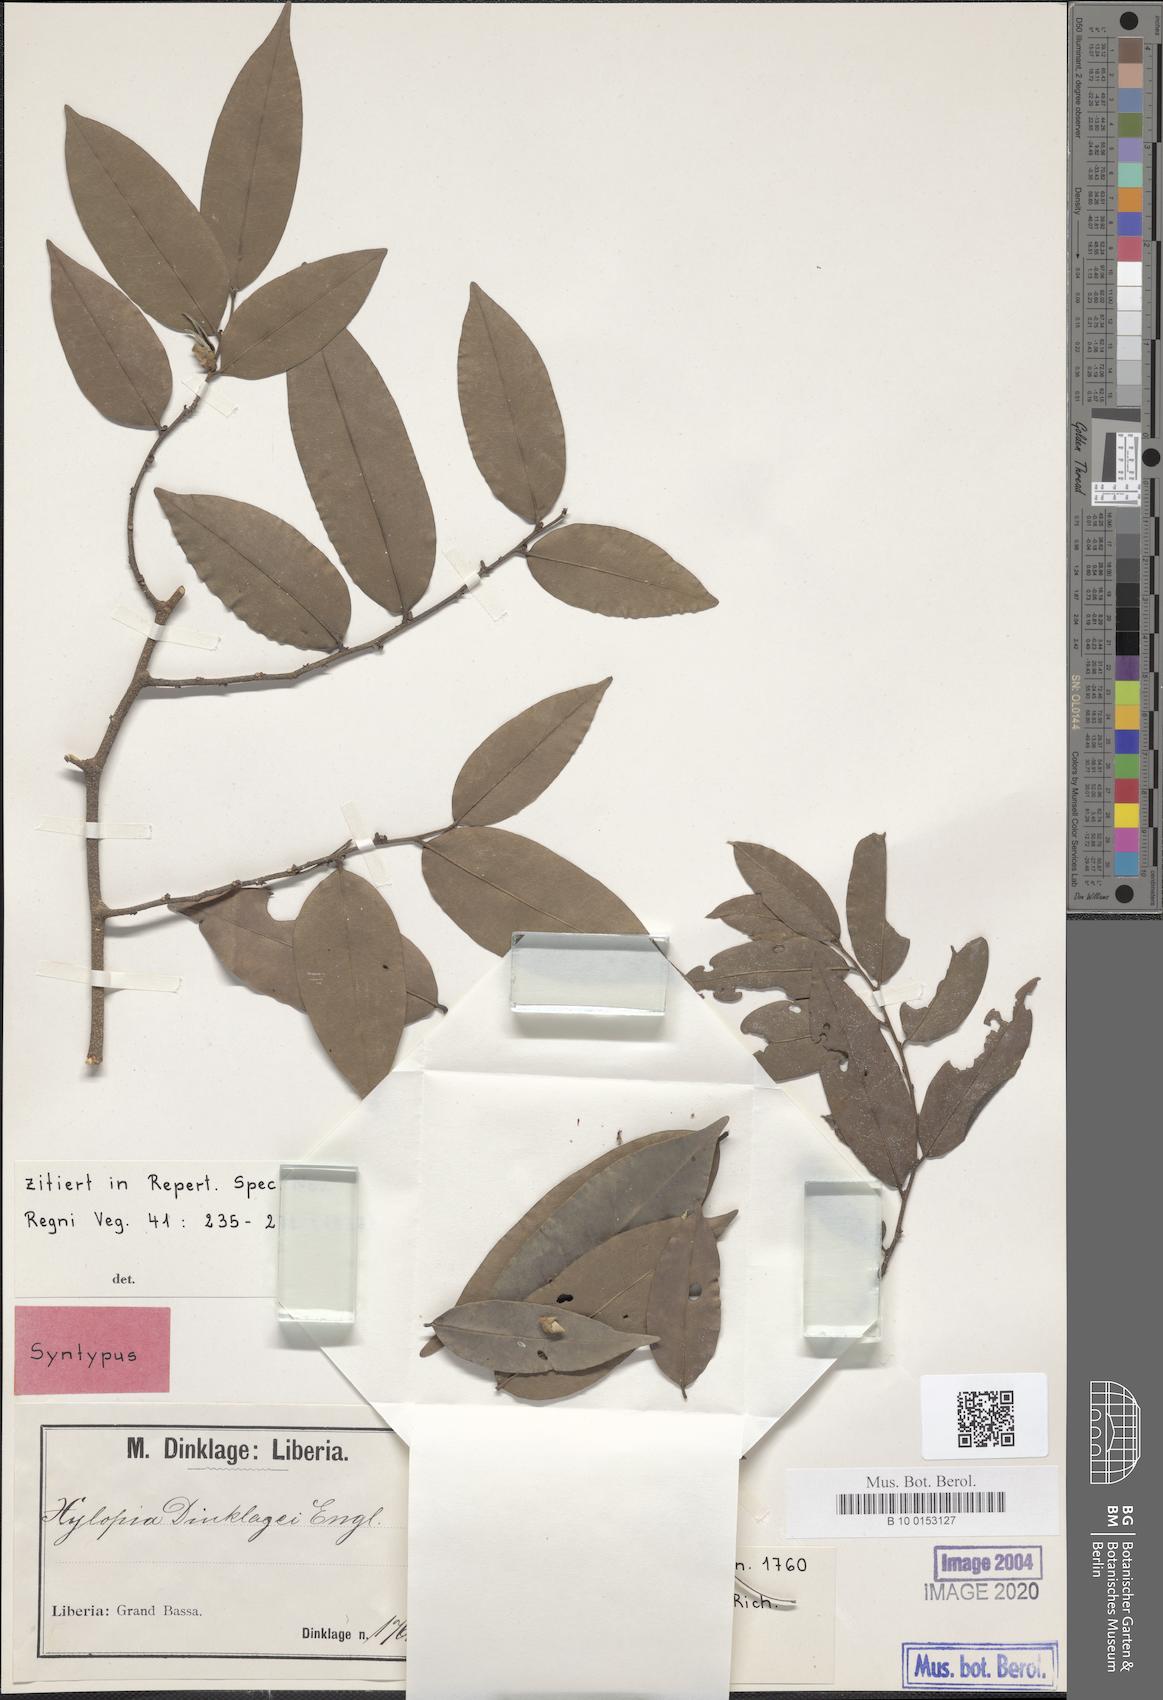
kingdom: Plantae
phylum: Tracheophyta
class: Magnoliopsida
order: Magnoliales
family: Annonaceae
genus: Xylopia
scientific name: Xylopia acutiflora
